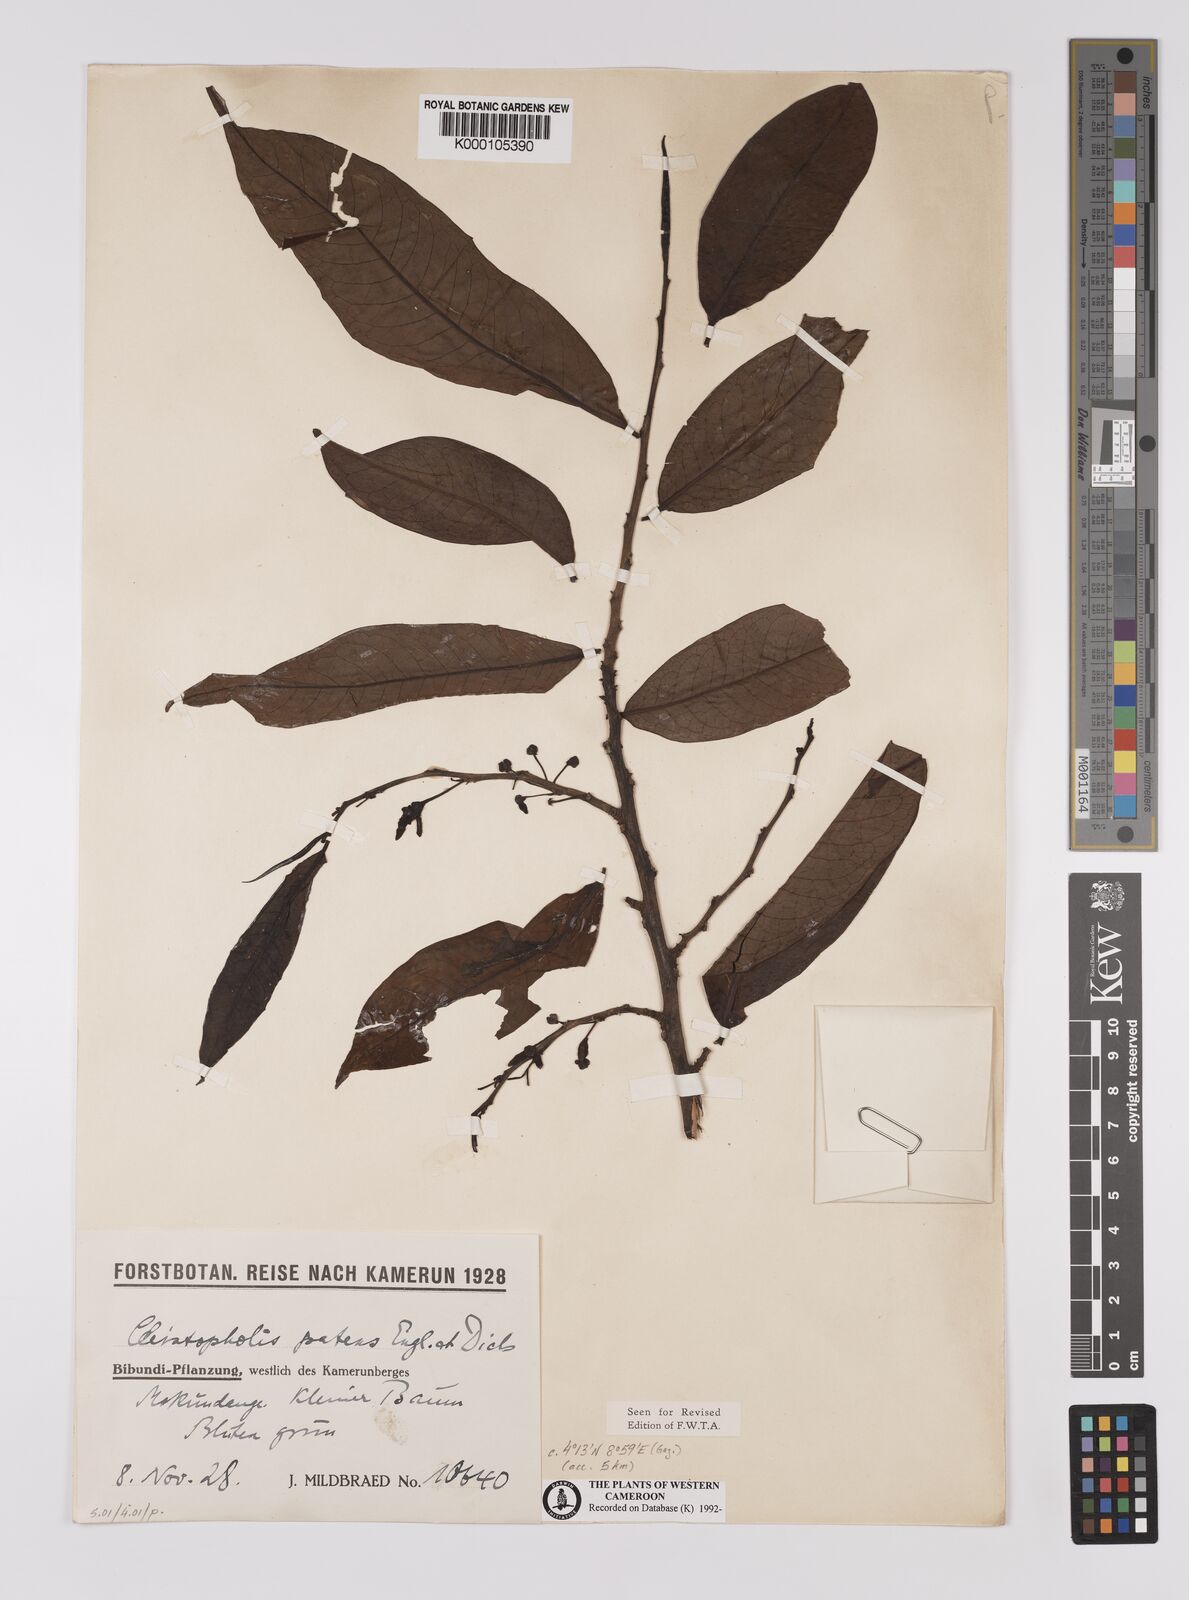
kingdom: Plantae
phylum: Tracheophyta
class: Magnoliopsida
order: Magnoliales
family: Annonaceae
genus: Cleistopholis
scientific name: Cleistopholis patens
